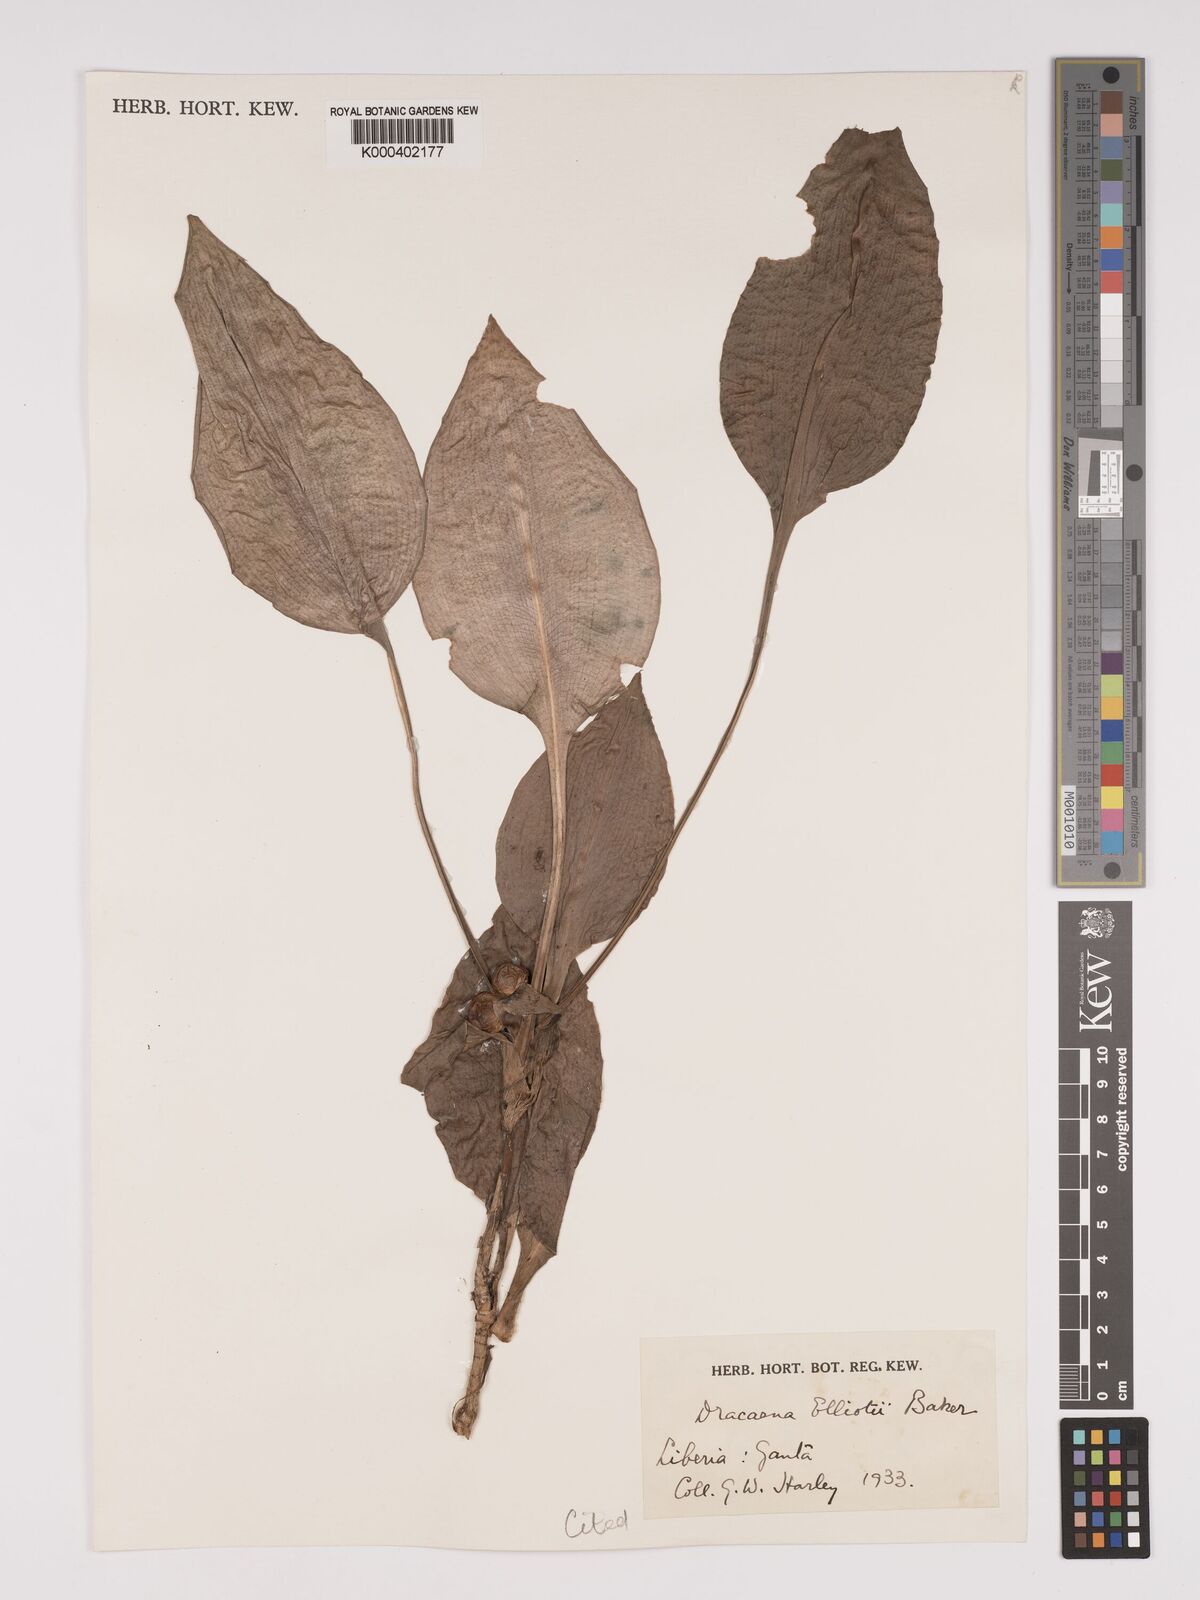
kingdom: Plantae
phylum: Tracheophyta
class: Liliopsida
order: Asparagales
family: Asparagaceae
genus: Dracaena
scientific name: Dracaena cristula
